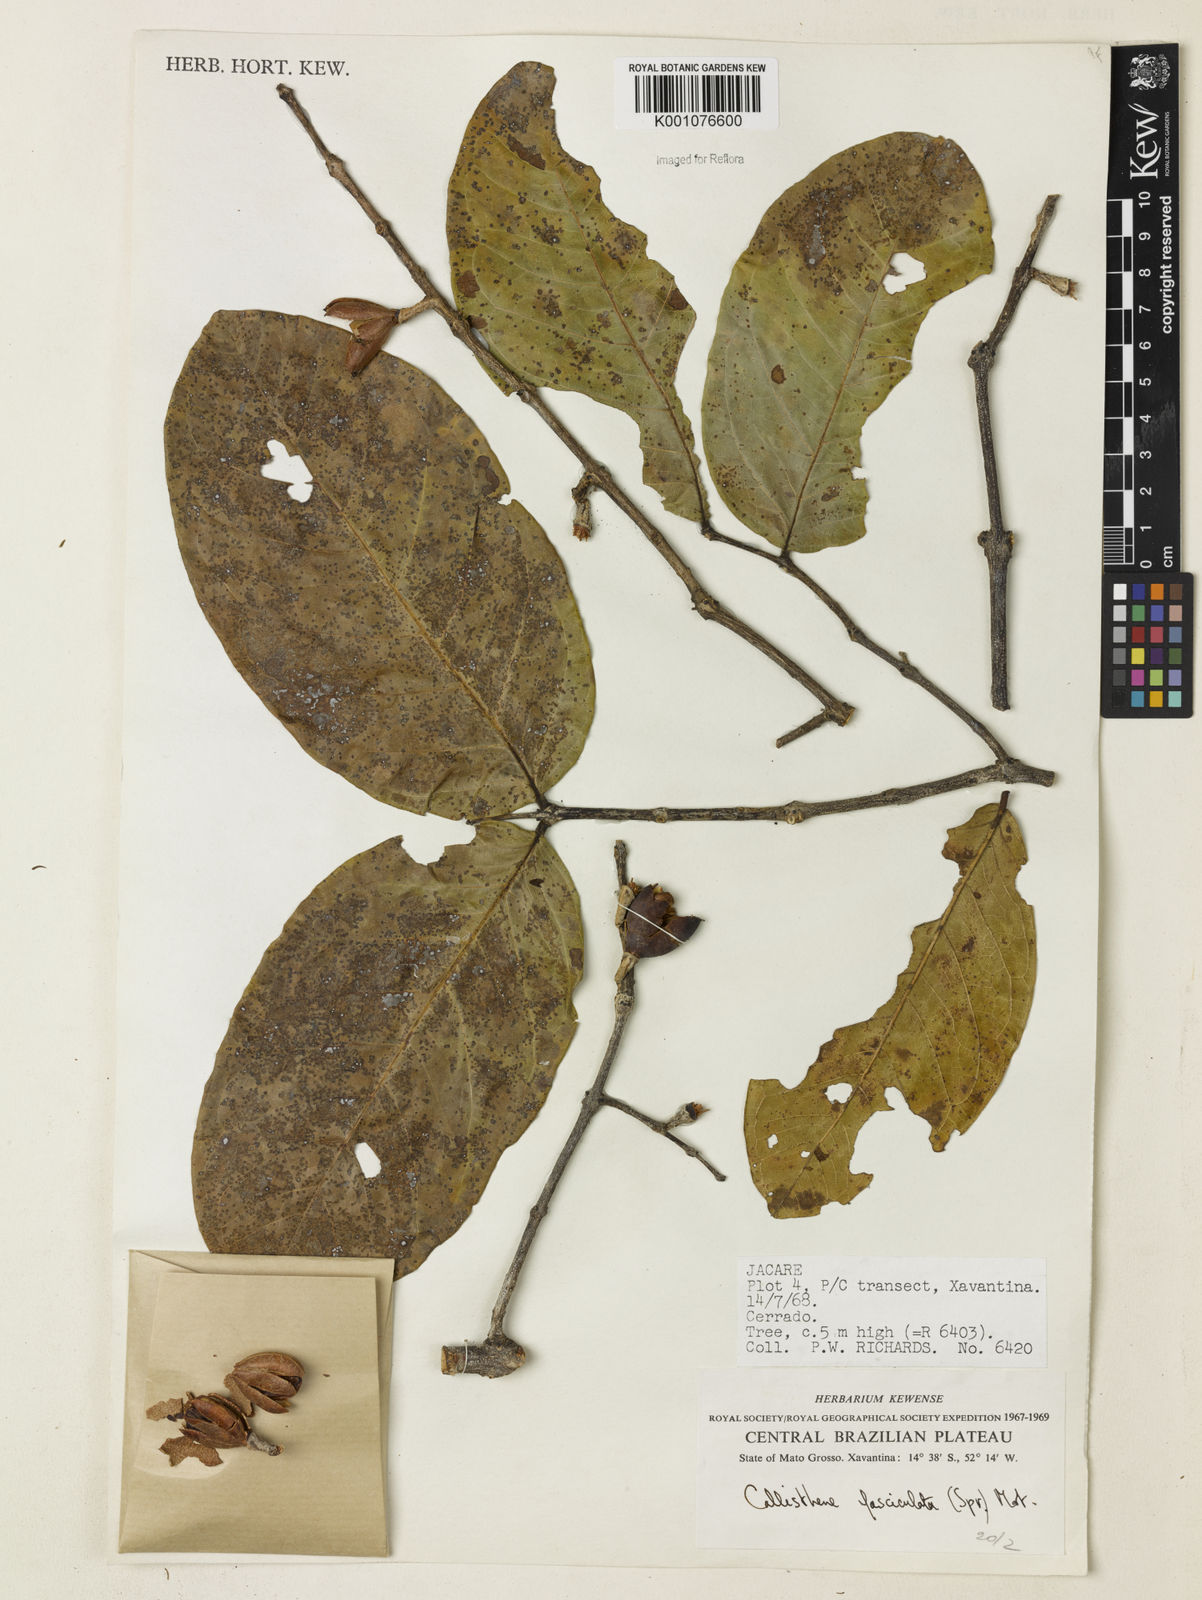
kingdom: Plantae
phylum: Tracheophyta
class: Magnoliopsida
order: Myrtales
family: Vochysiaceae
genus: Callisthene
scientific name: Callisthene fasciculata
